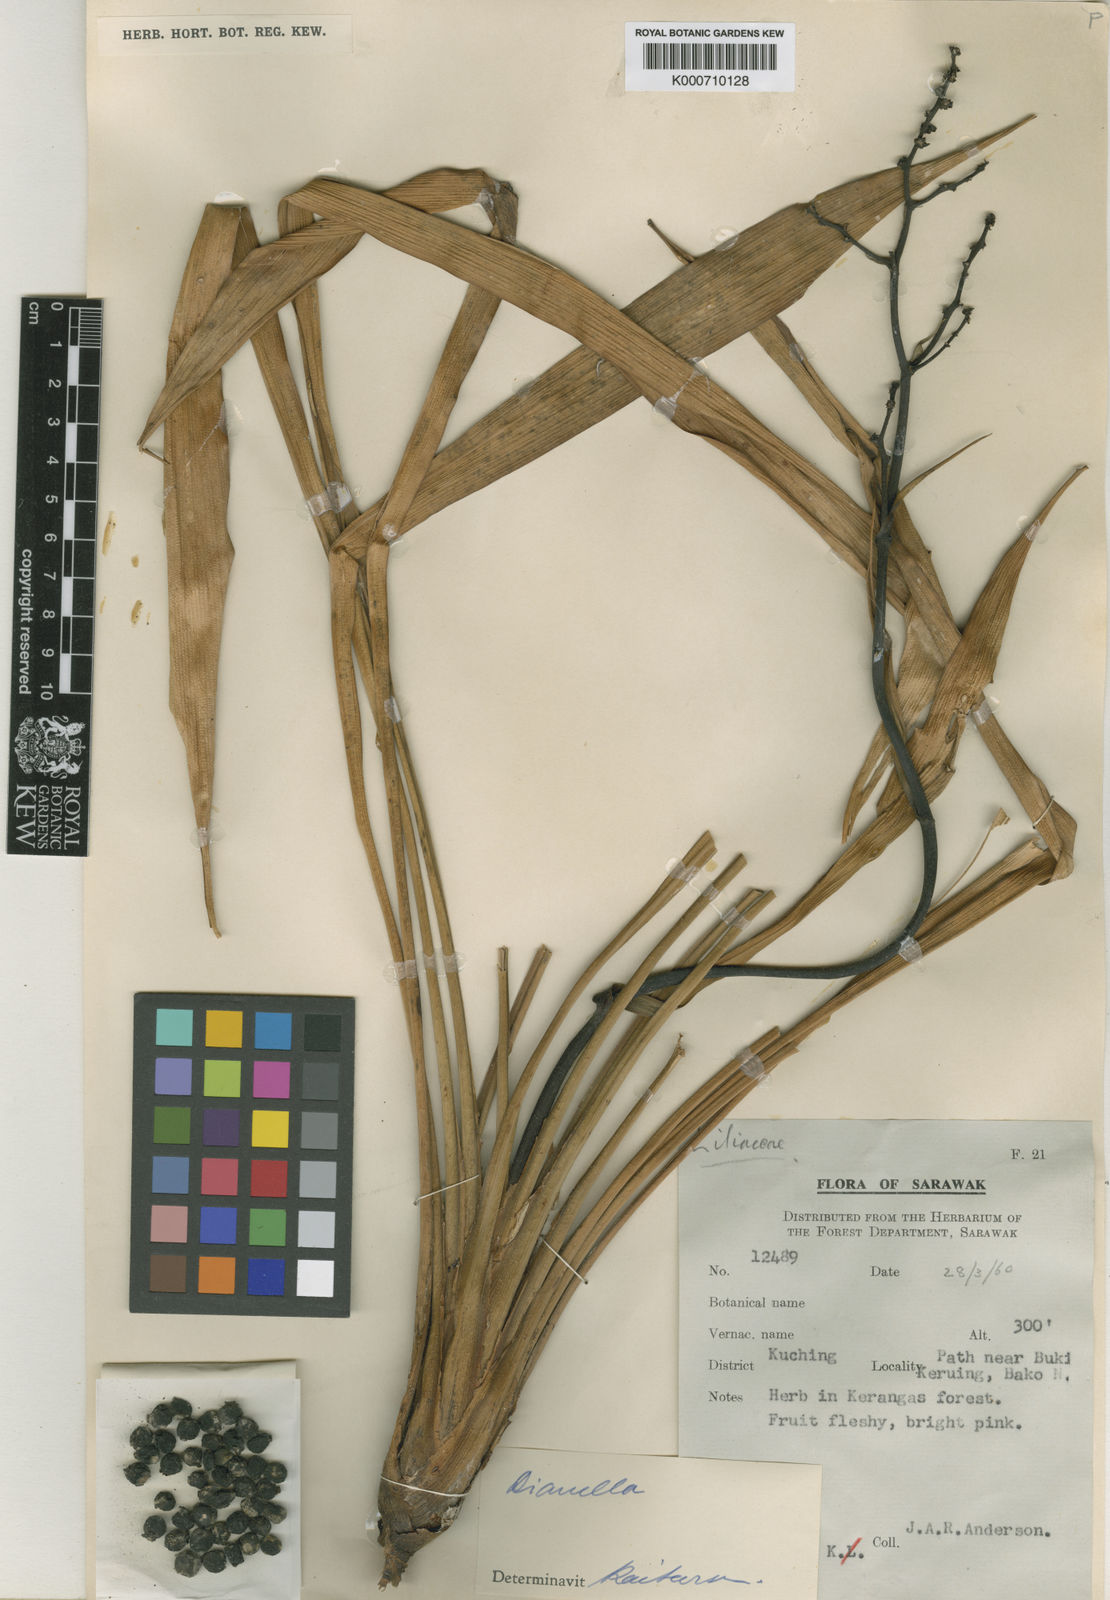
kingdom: Plantae
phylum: Tracheophyta
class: Liliopsida
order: Commelinales
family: Hanguanaceae
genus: Hanguana
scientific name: Hanguana malayana
